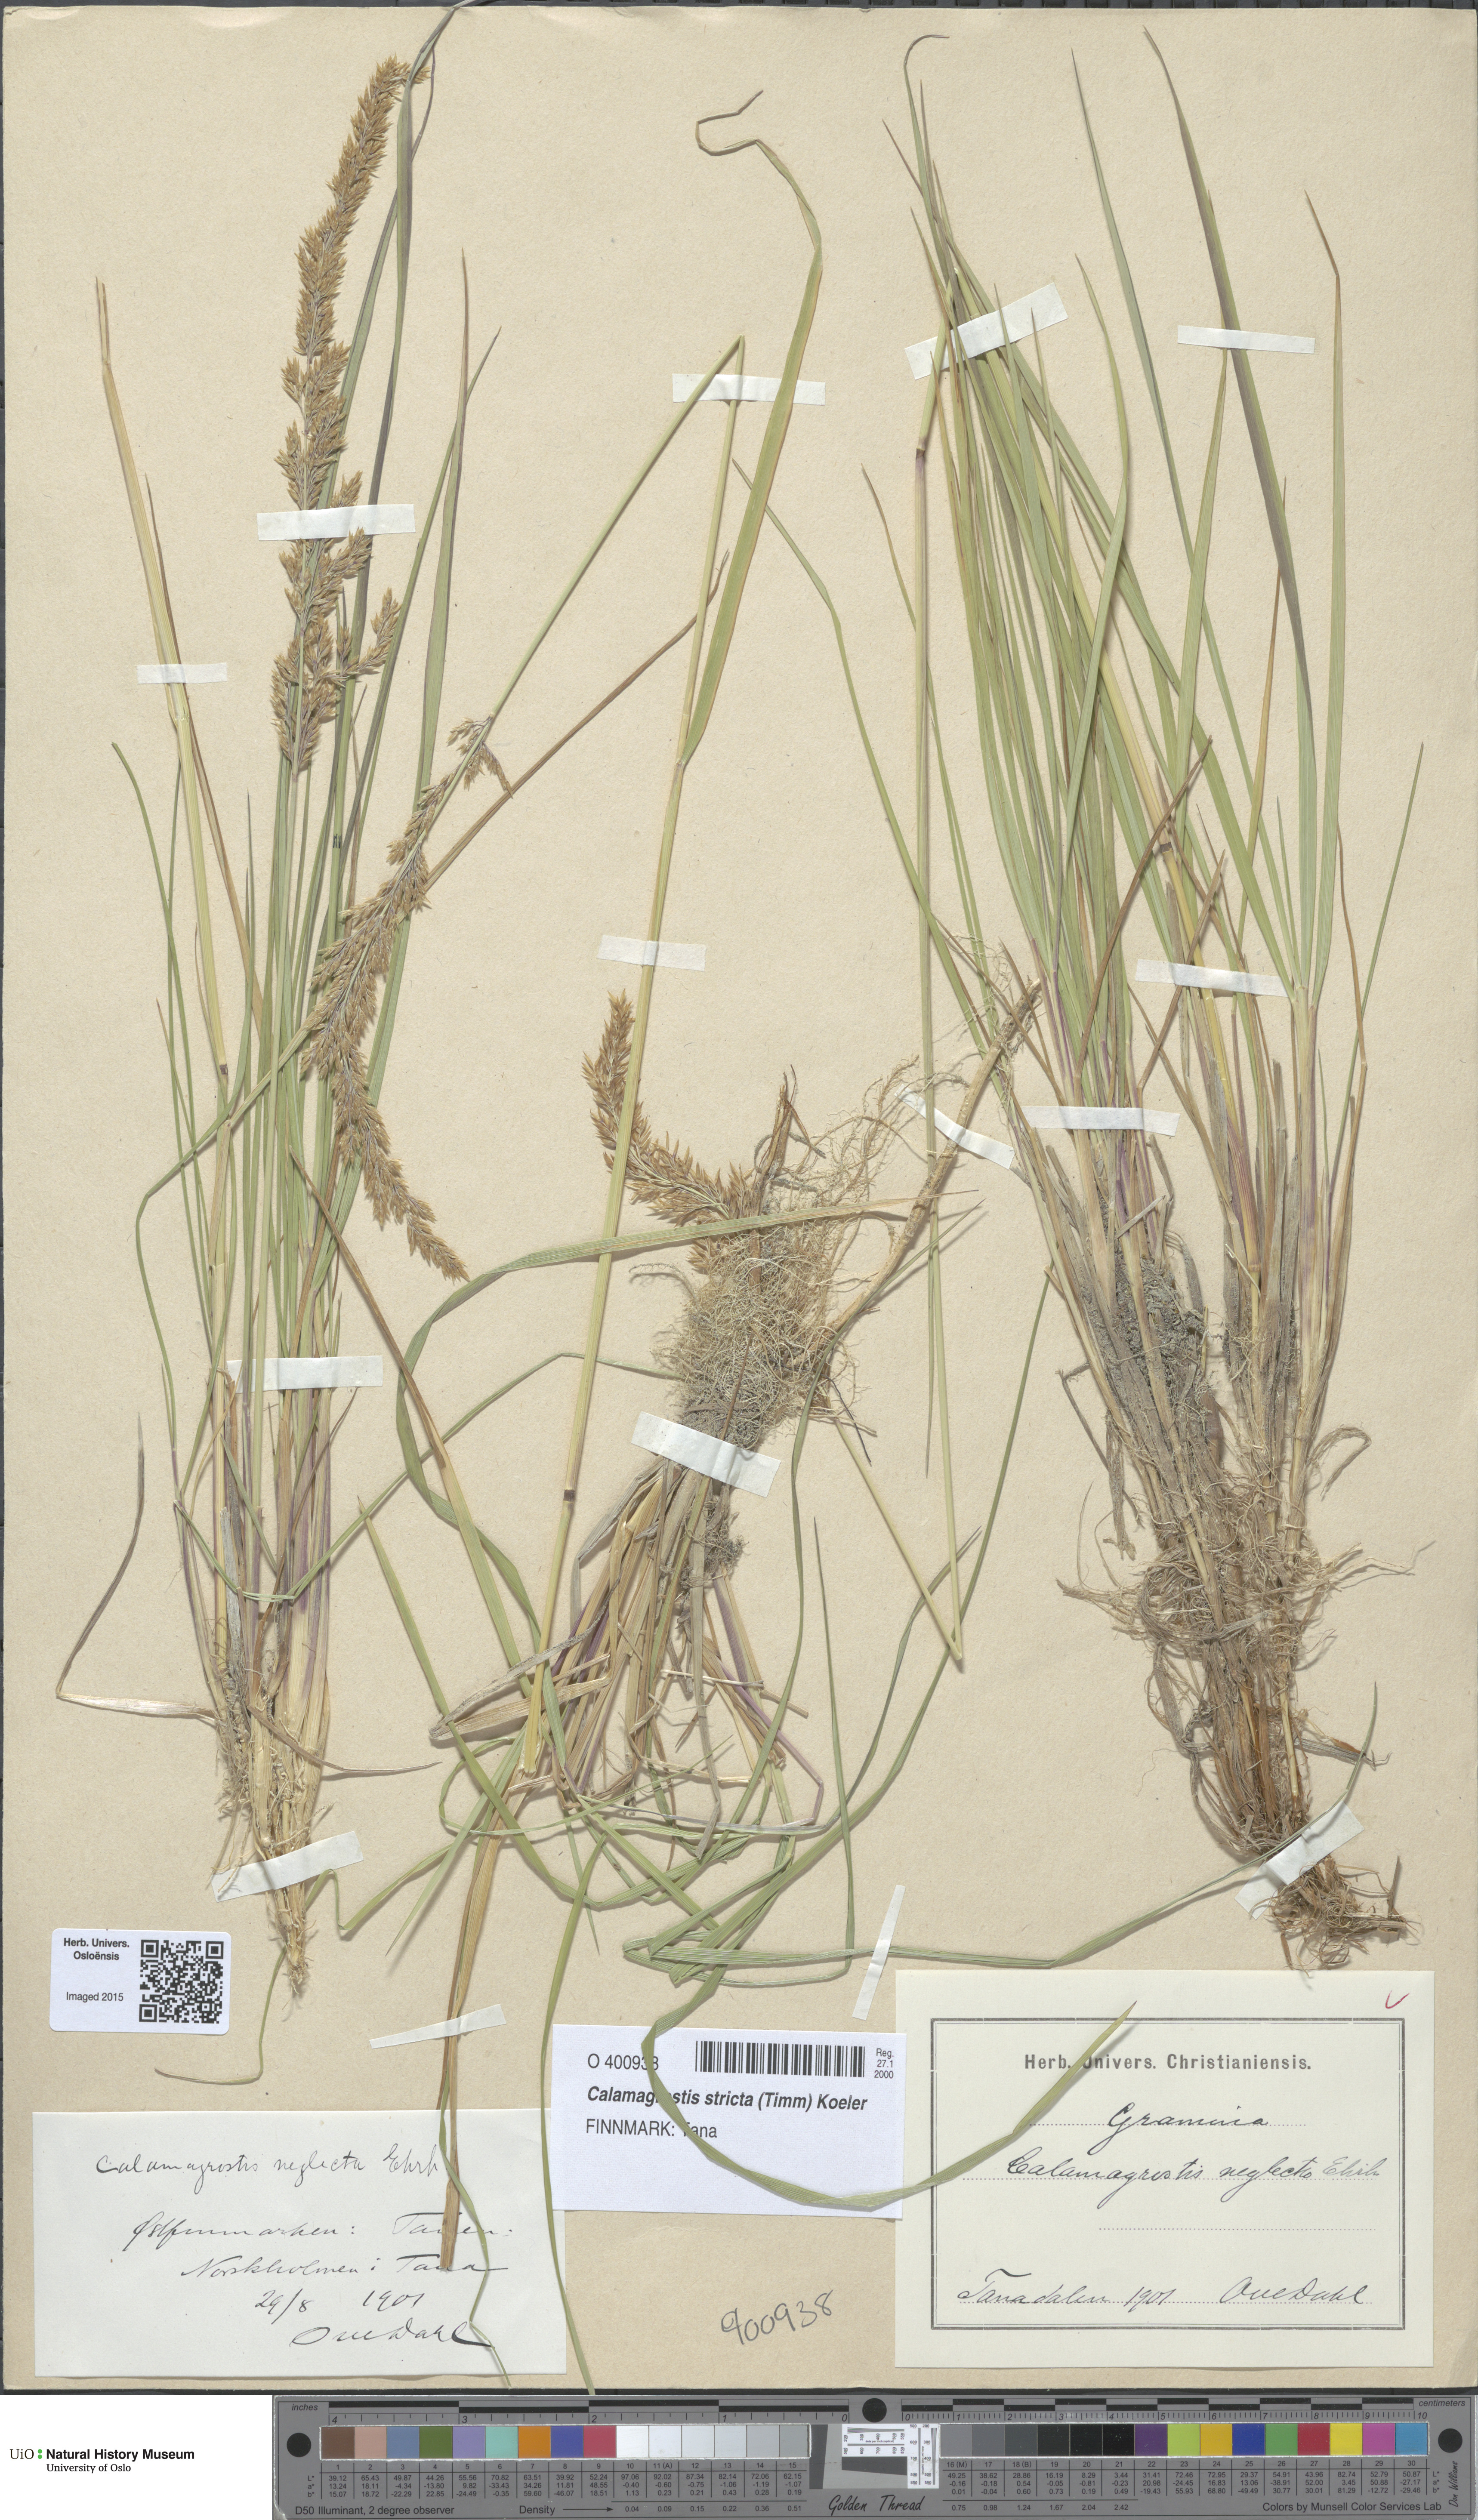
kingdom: Plantae
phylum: Tracheophyta
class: Liliopsida
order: Poales
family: Poaceae
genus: Achnatherum
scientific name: Achnatherum calamagrostis
